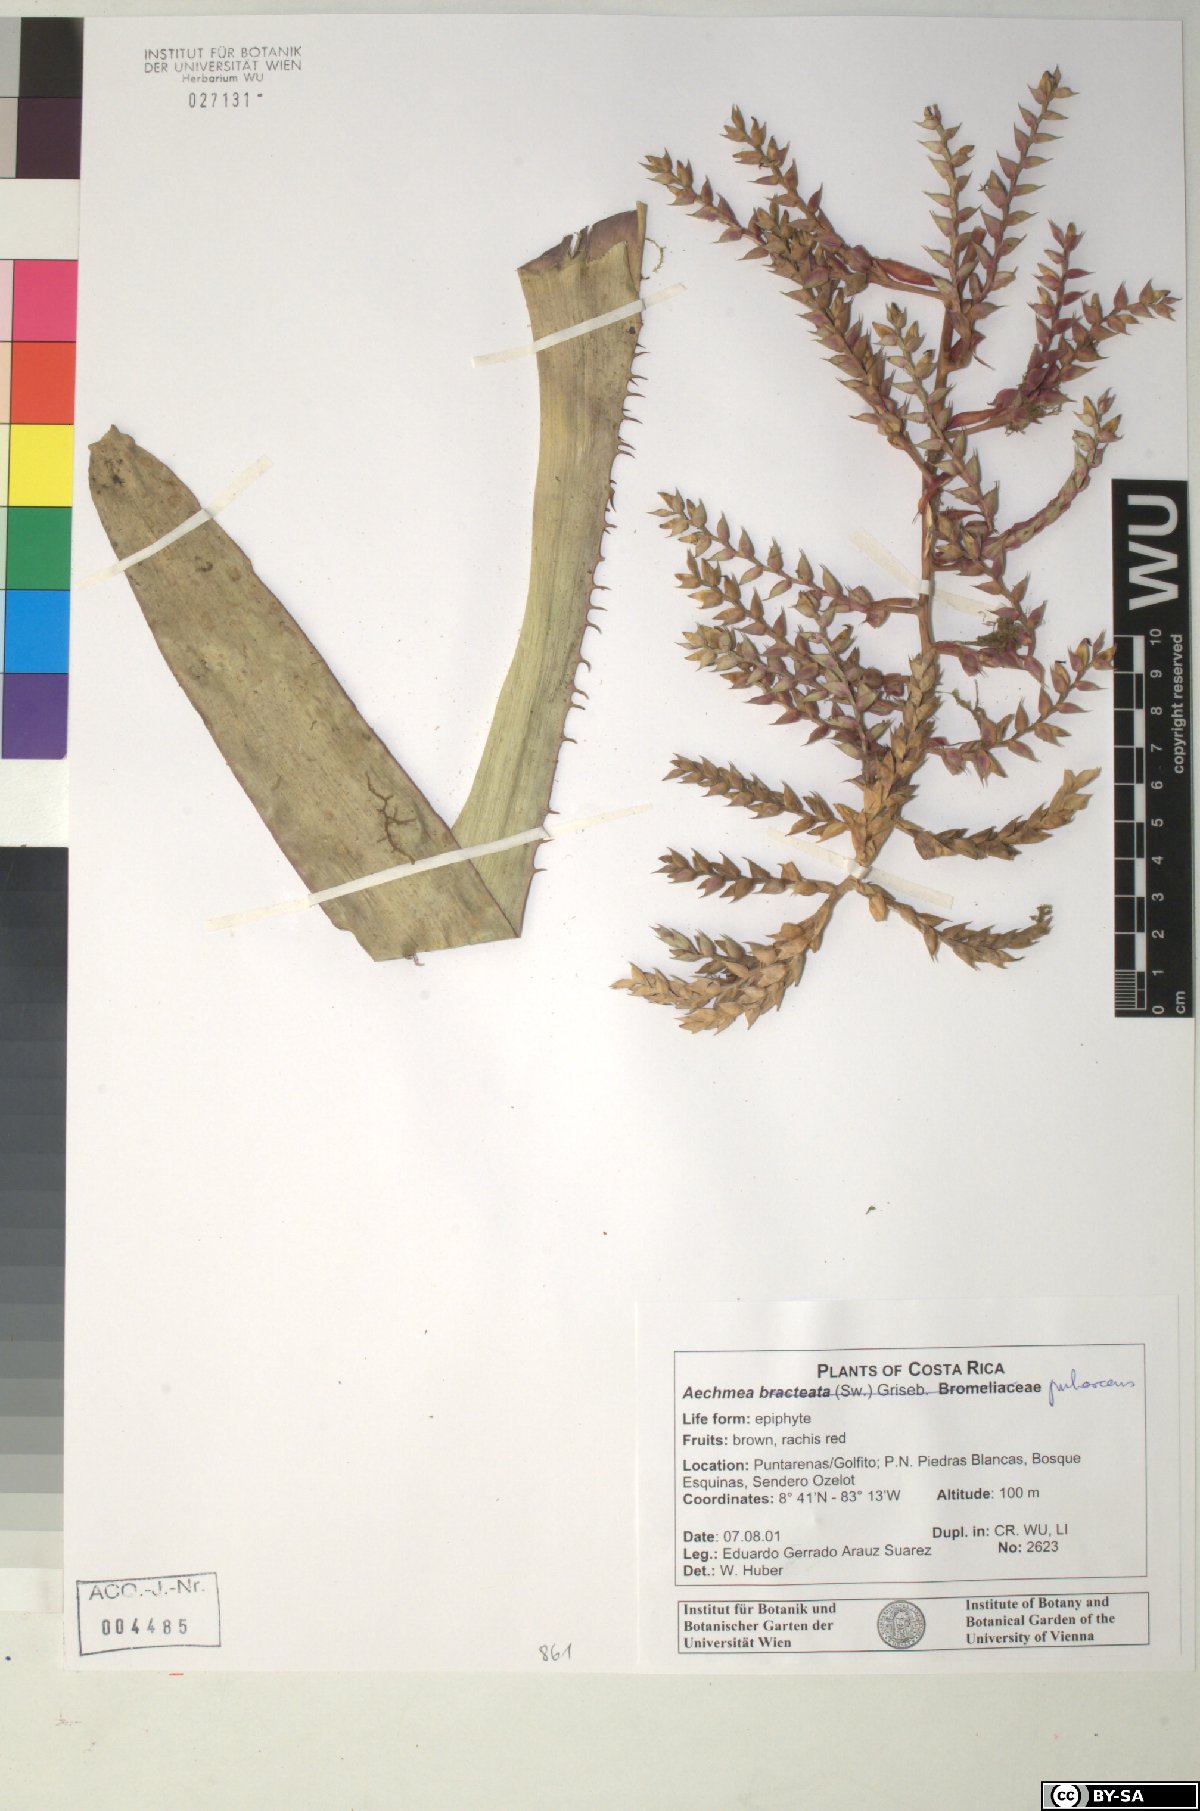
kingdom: Plantae
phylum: Tracheophyta
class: Liliopsida
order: Poales
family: Bromeliaceae
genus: Aechmea
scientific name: Aechmea bracteata
